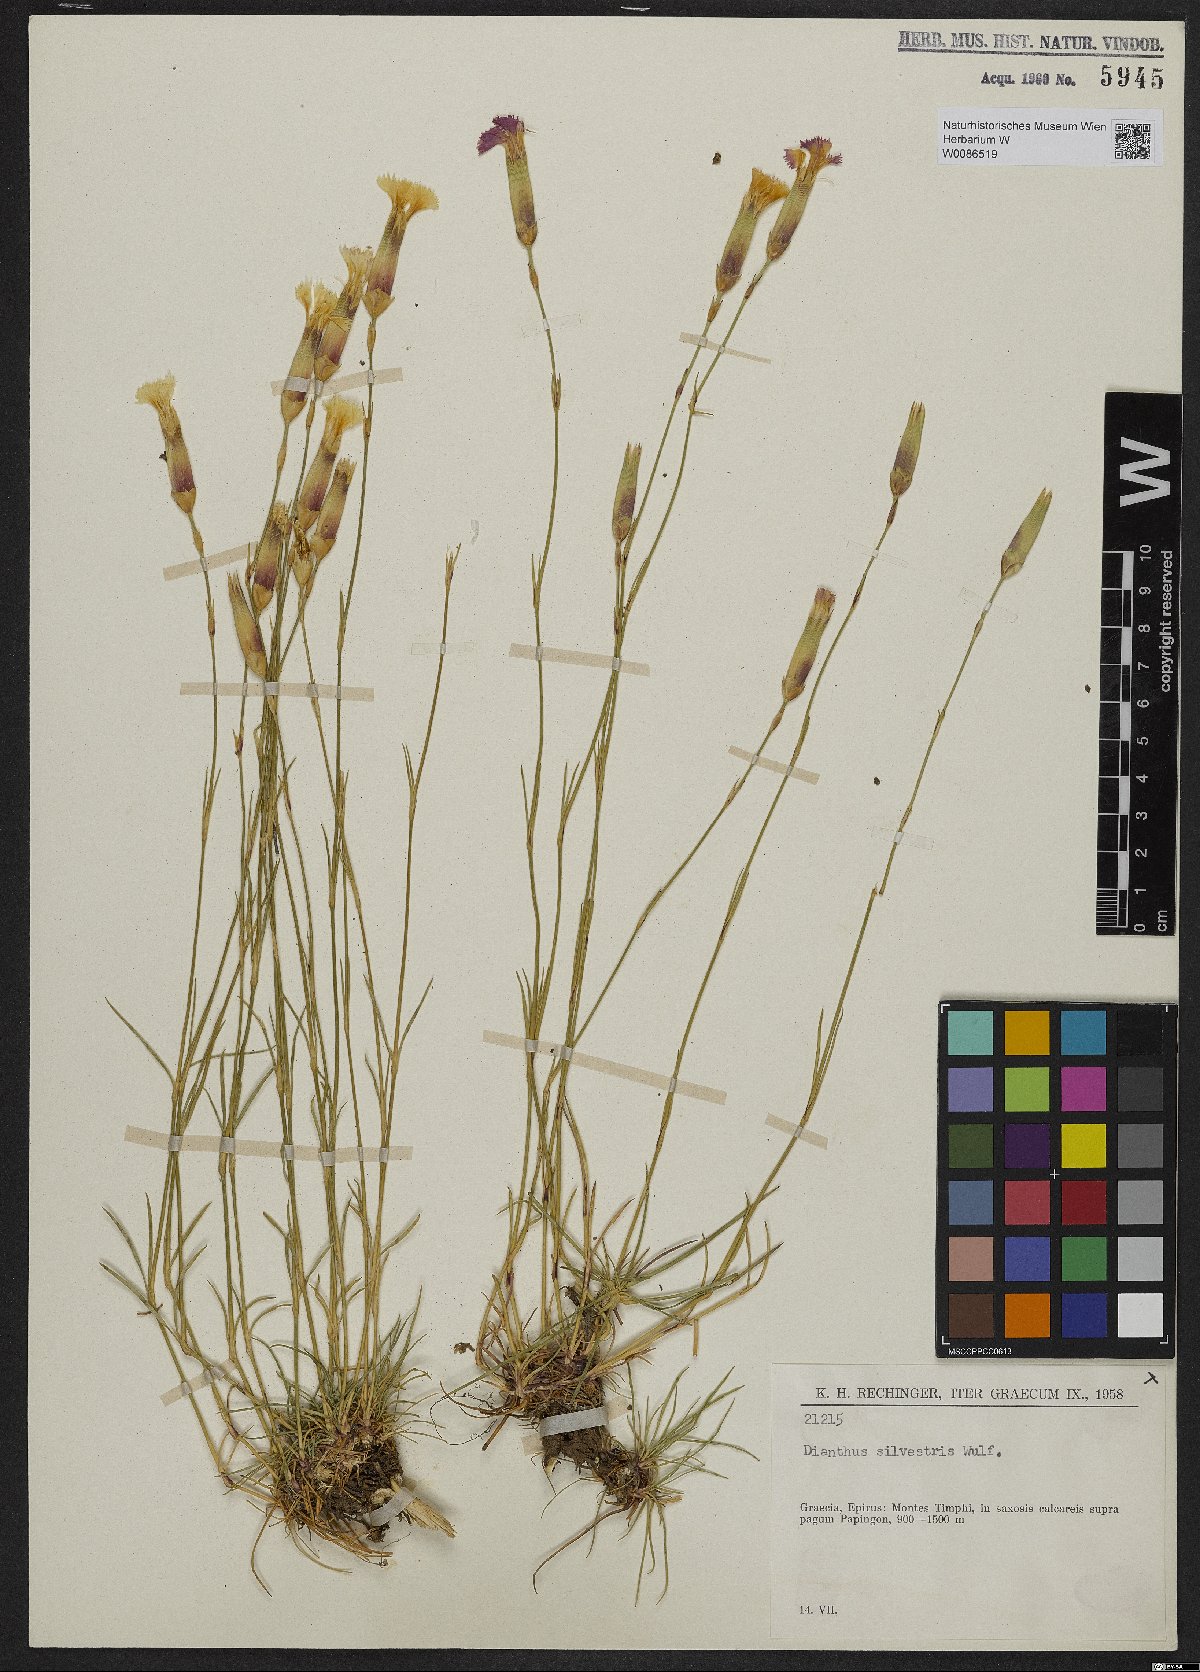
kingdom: Plantae
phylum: Tracheophyta
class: Magnoliopsida
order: Caryophyllales
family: Caryophyllaceae
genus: Dianthus
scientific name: Dianthus sylvestris
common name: Wood pink
